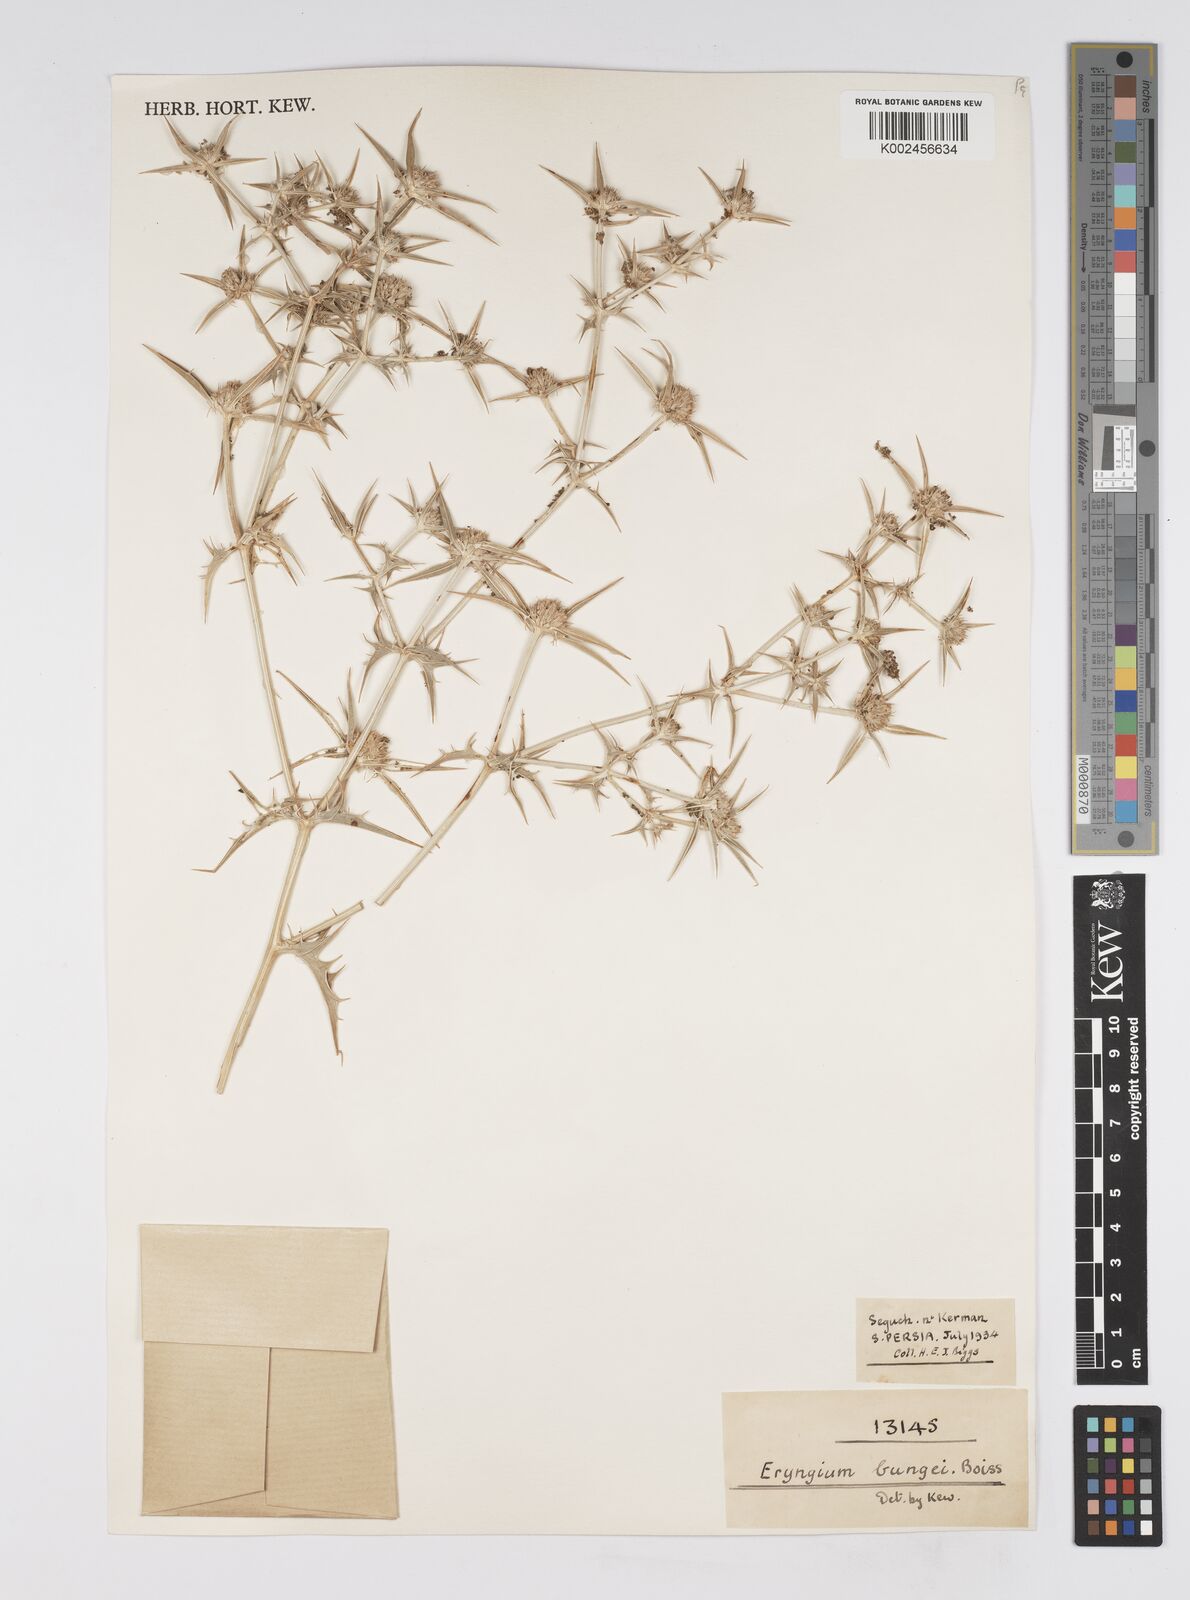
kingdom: Plantae
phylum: Tracheophyta
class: Magnoliopsida
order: Apiales
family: Apiaceae
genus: Eryngium
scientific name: Eryngium bungei
